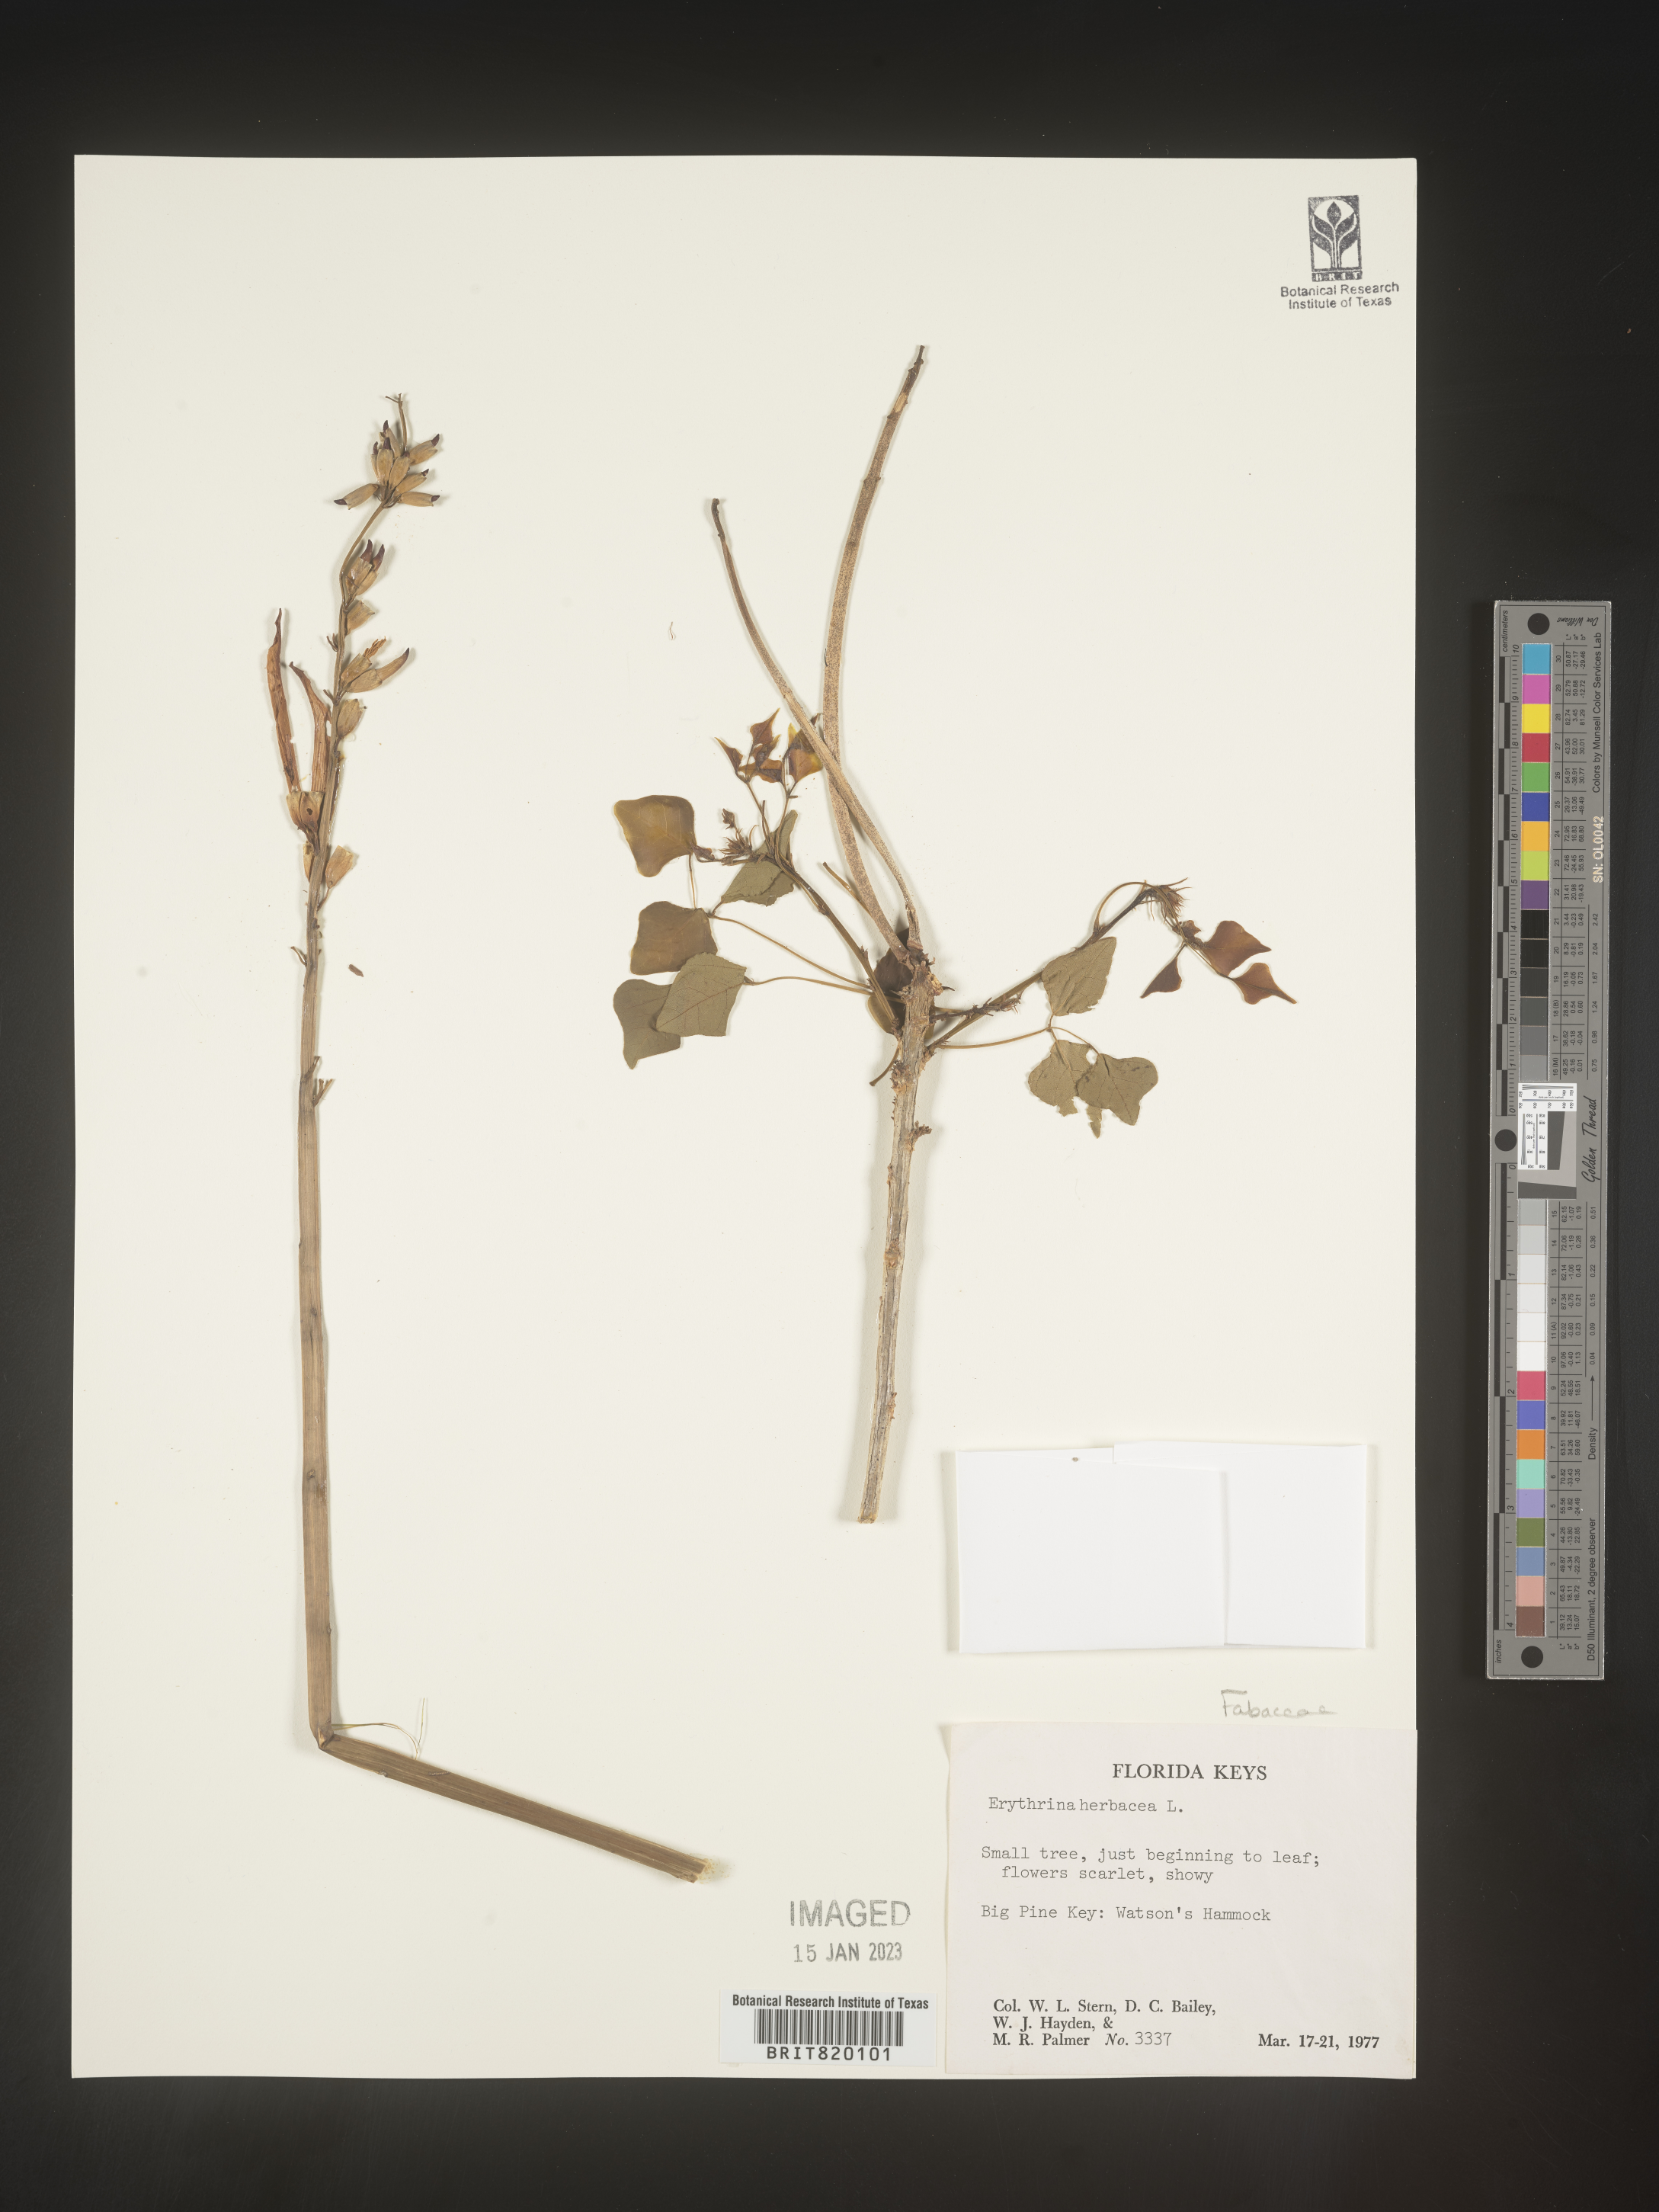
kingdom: Plantae
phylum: Tracheophyta
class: Magnoliopsida
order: Fabales
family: Fabaceae
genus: Erythrina
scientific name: Erythrina herbacea
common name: Coral-bean
